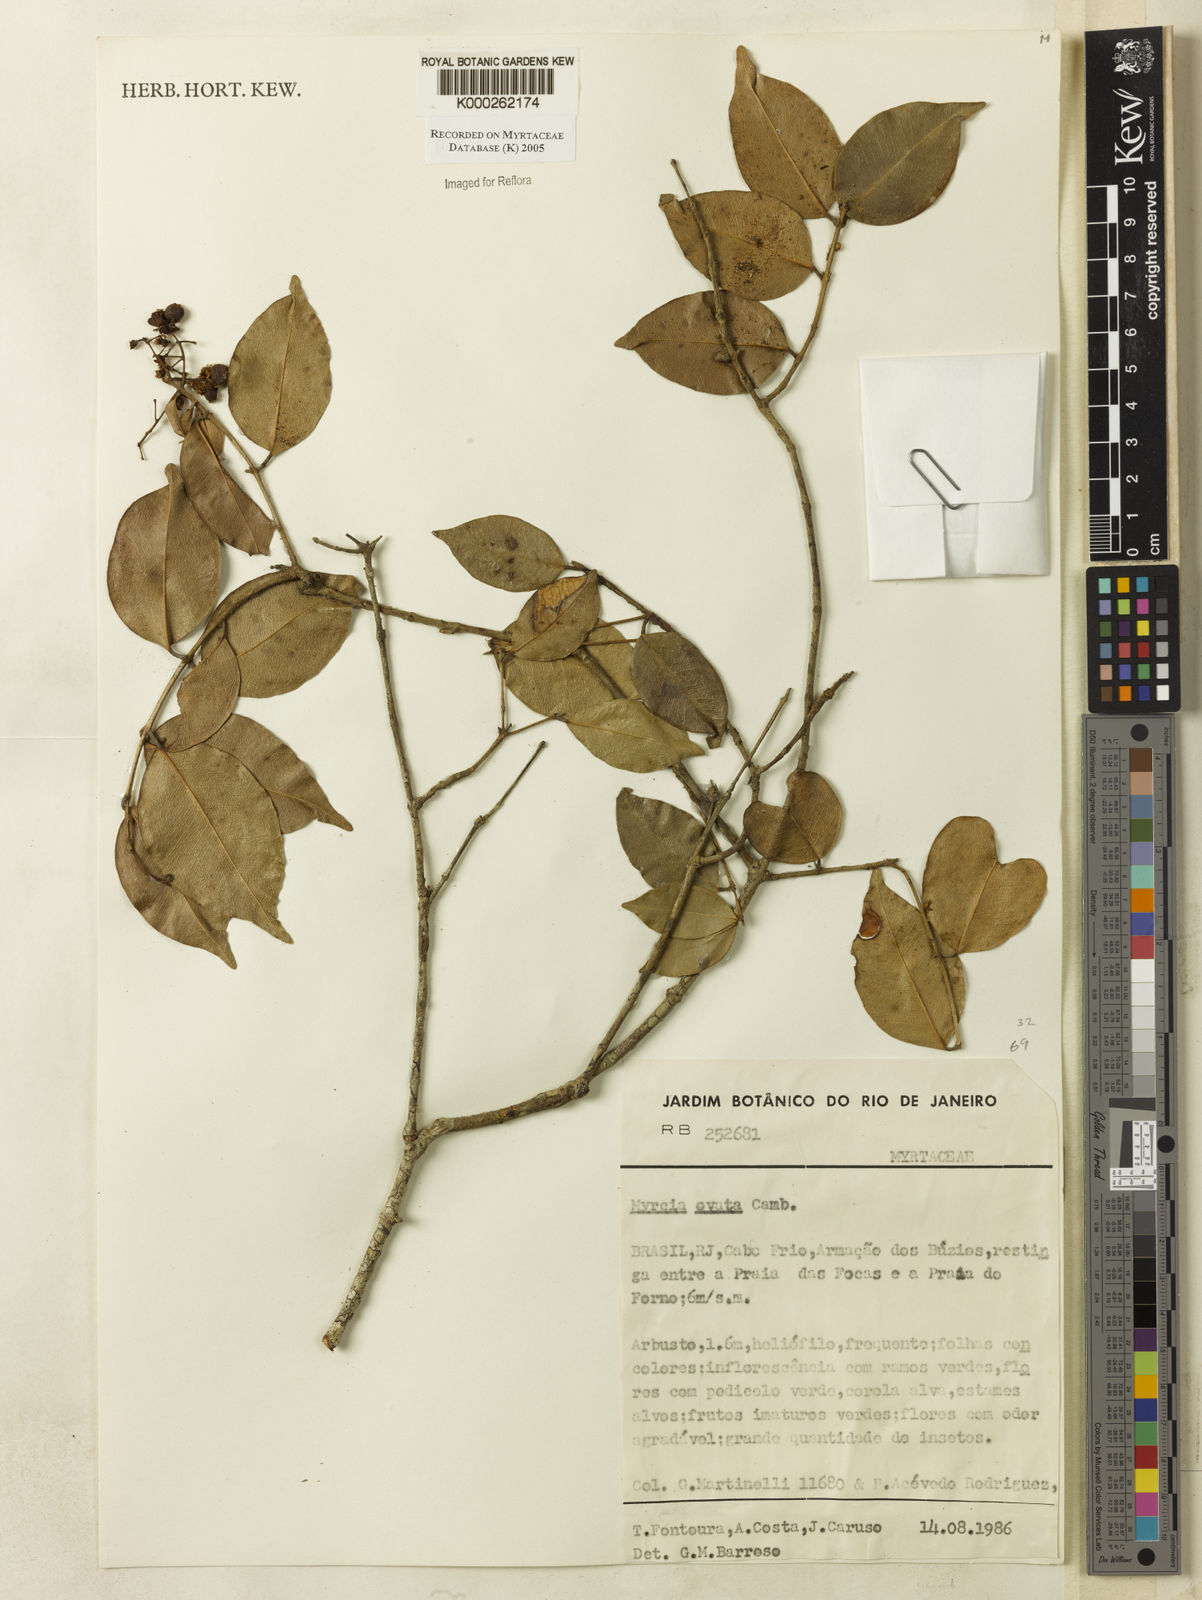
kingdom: Plantae
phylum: Tracheophyta
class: Magnoliopsida
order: Myrtales
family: Myrtaceae
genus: Myrcia
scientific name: Myrcia ovata
